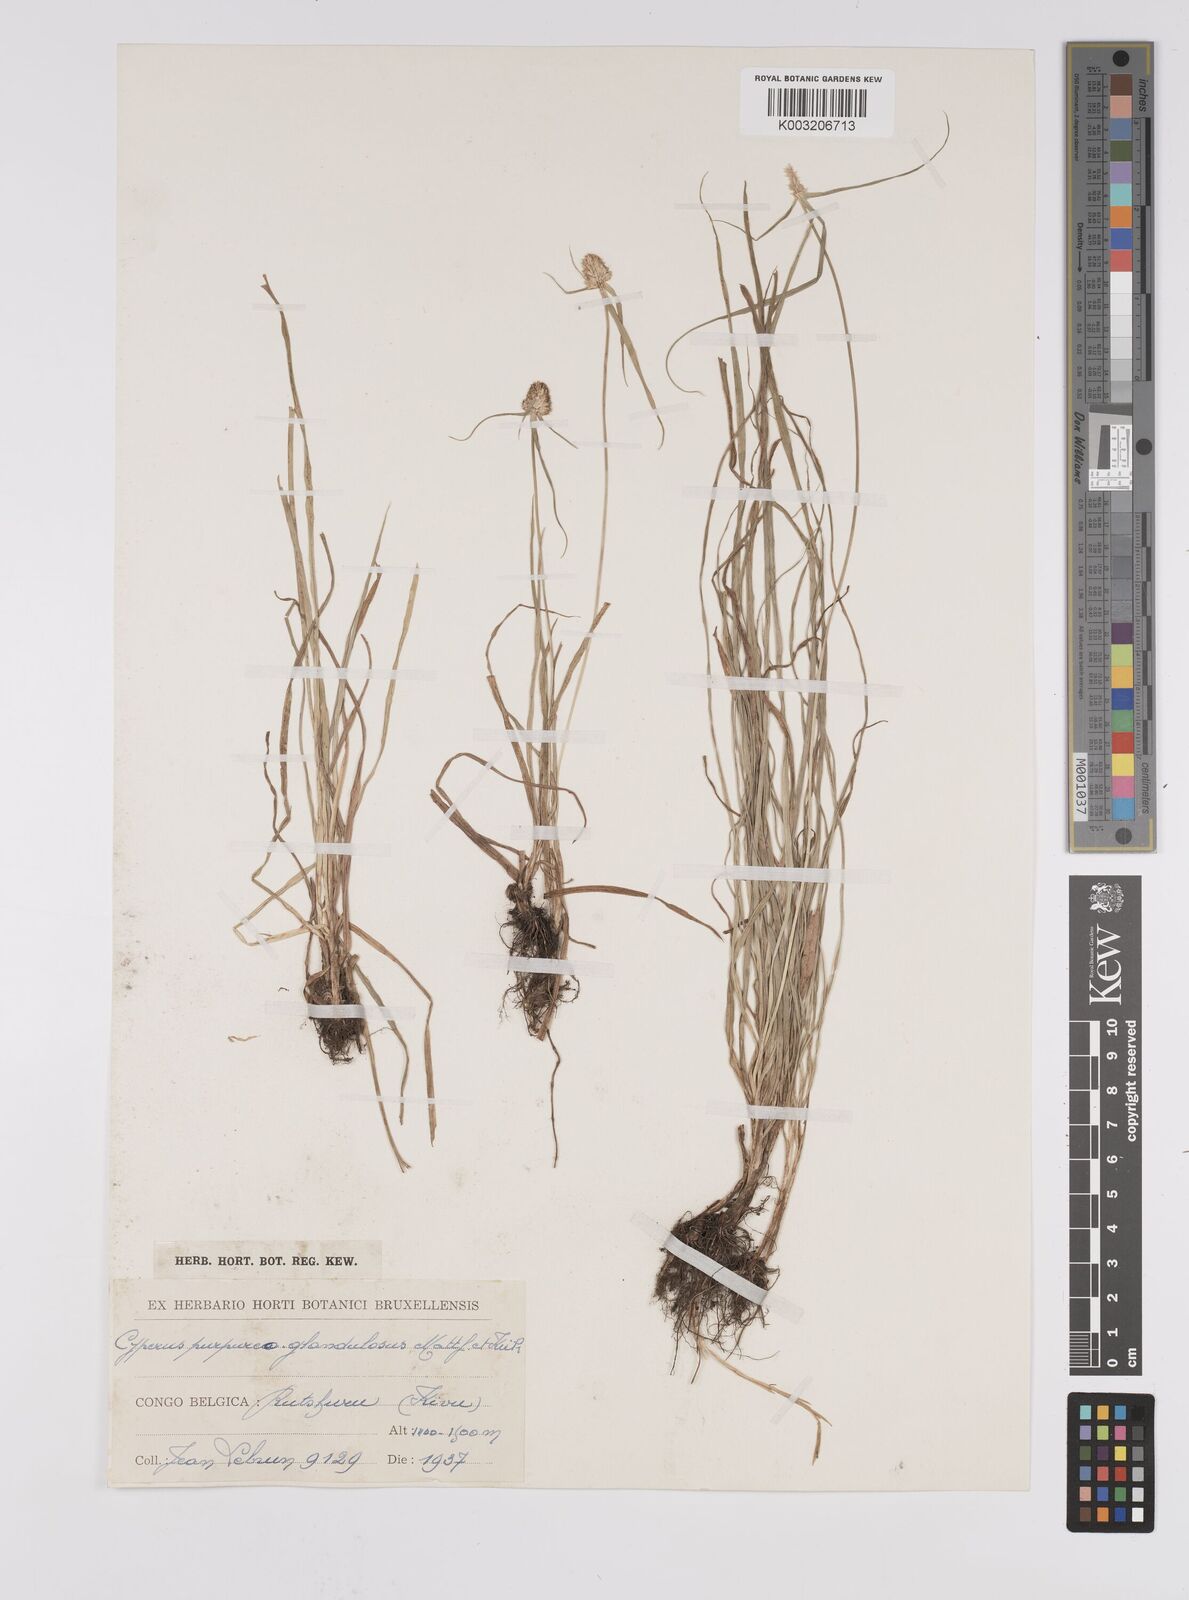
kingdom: Plantae
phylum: Tracheophyta
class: Liliopsida
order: Poales
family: Cyperaceae
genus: Cyperus
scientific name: Cyperus conglobatus
